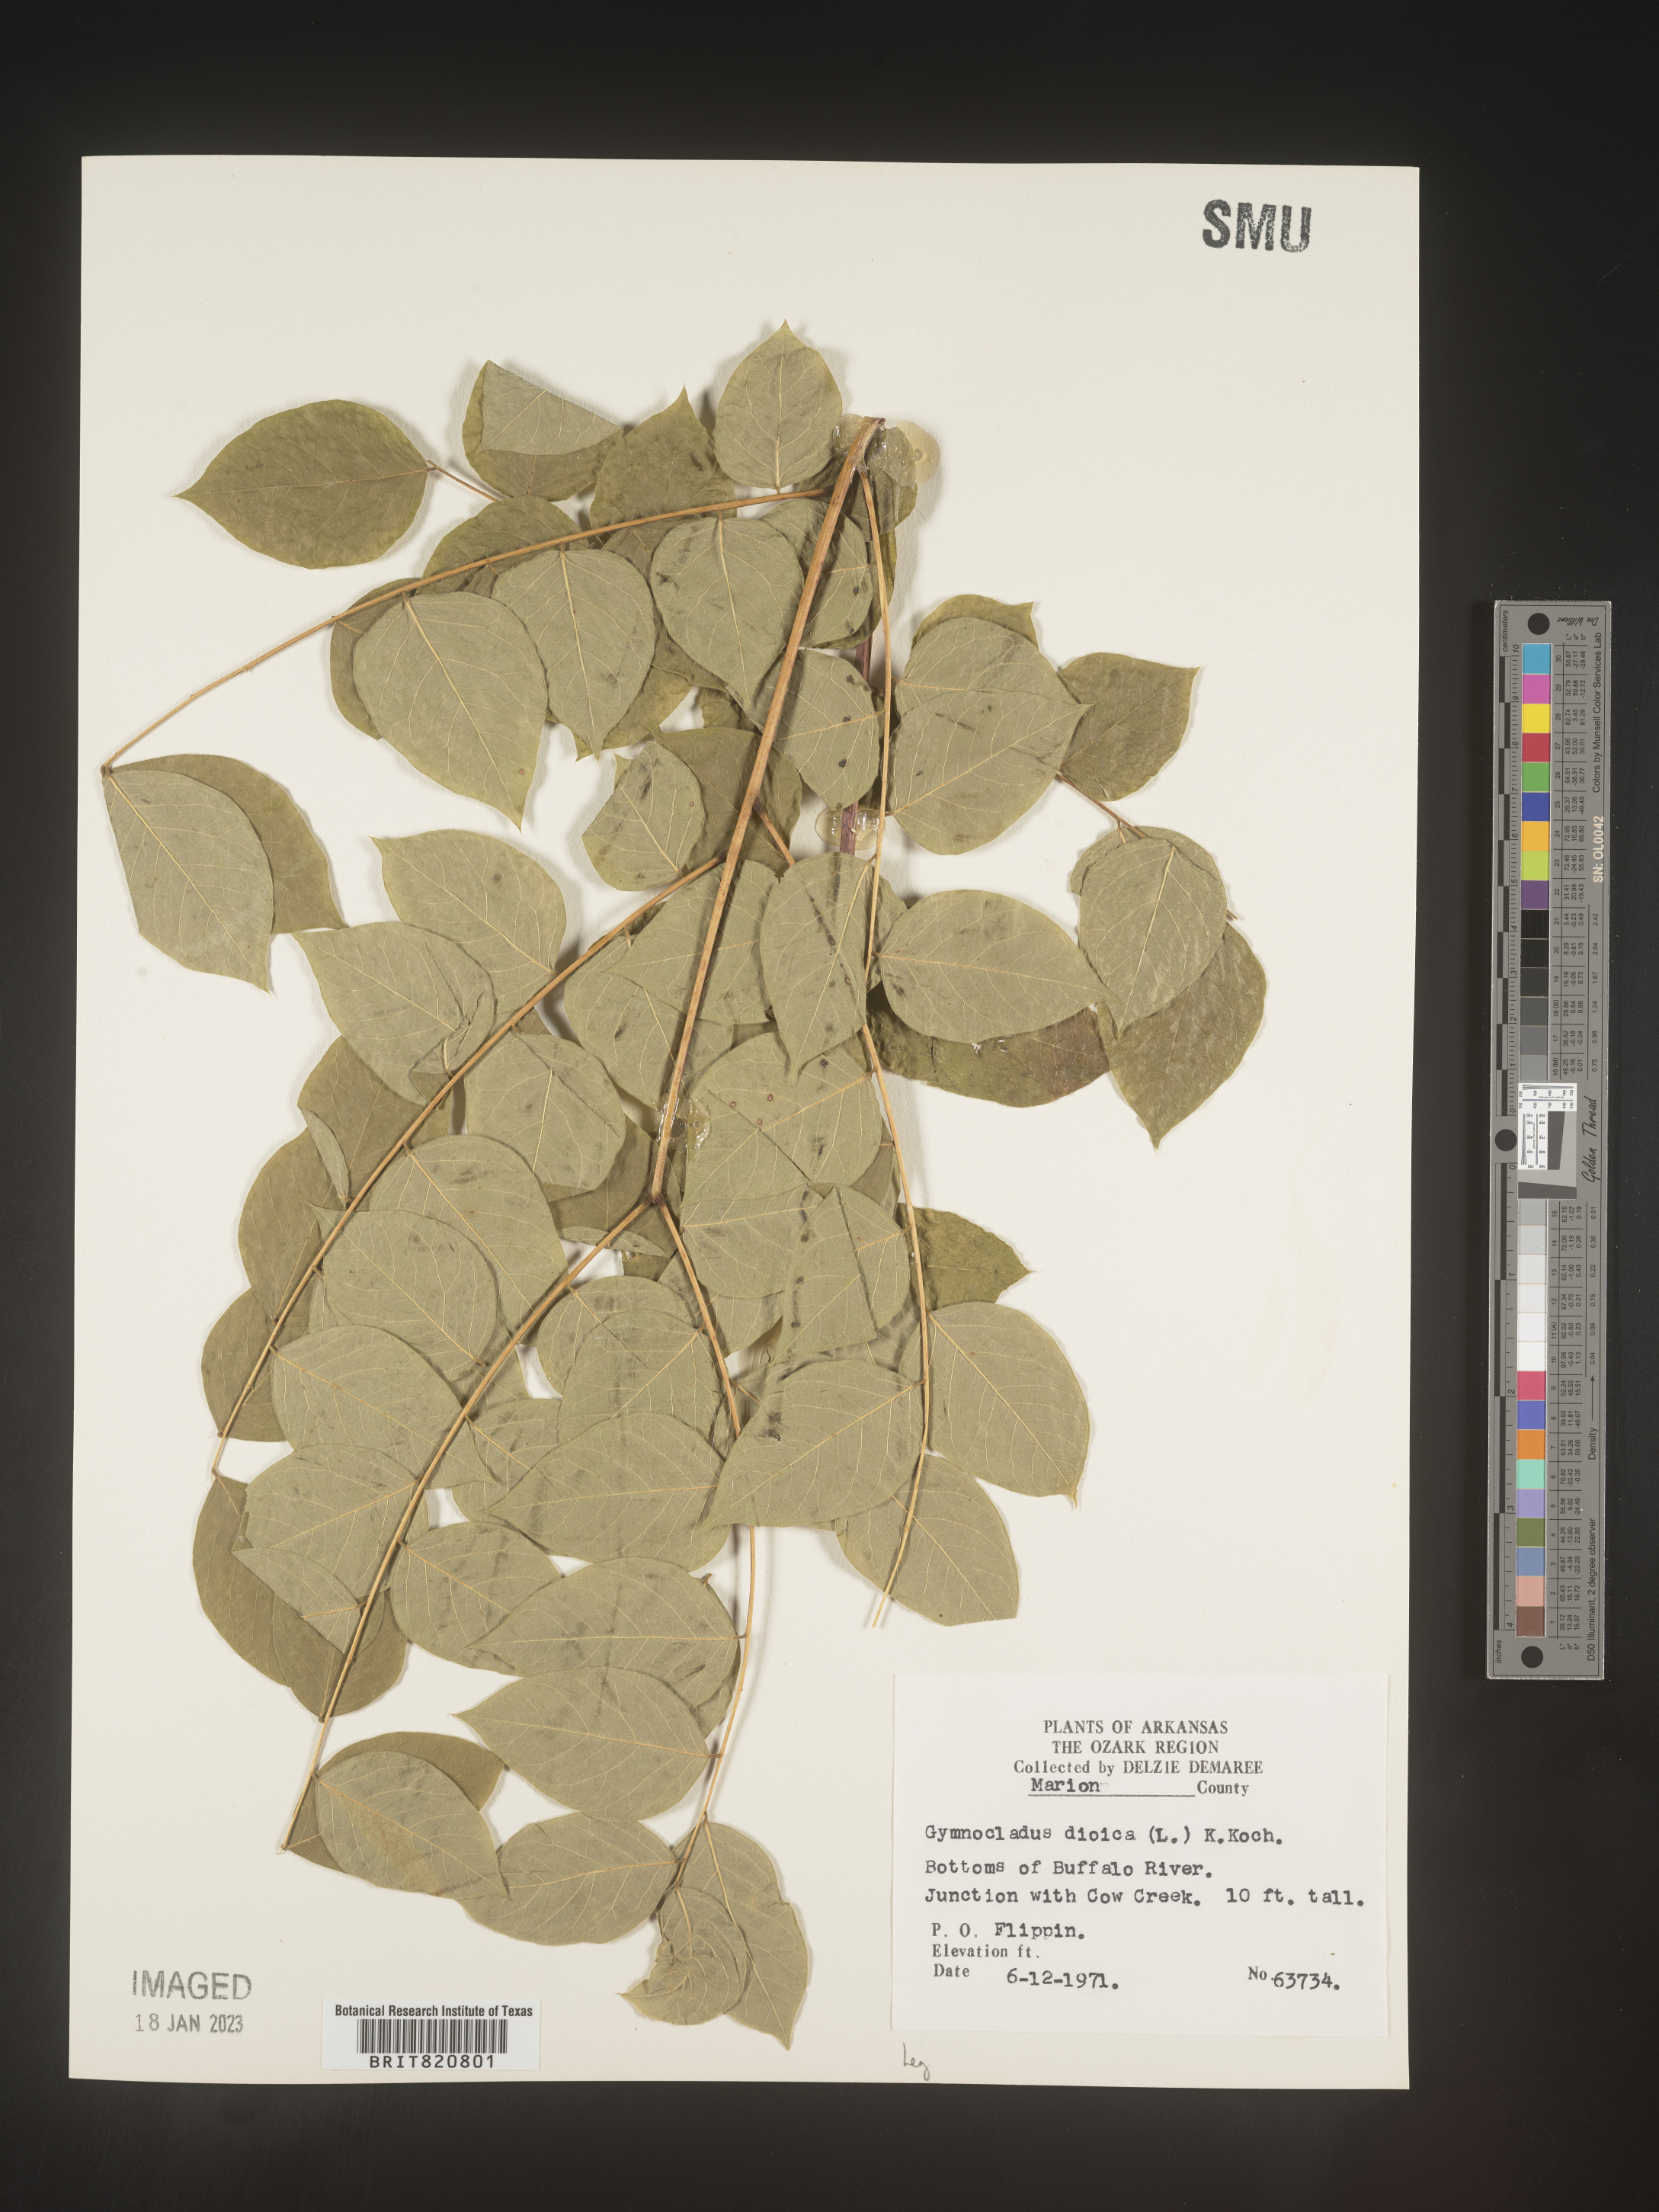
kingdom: Plantae
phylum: Tracheophyta
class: Magnoliopsida
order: Fabales
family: Fabaceae
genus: Gymnocladus
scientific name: Gymnocladus
